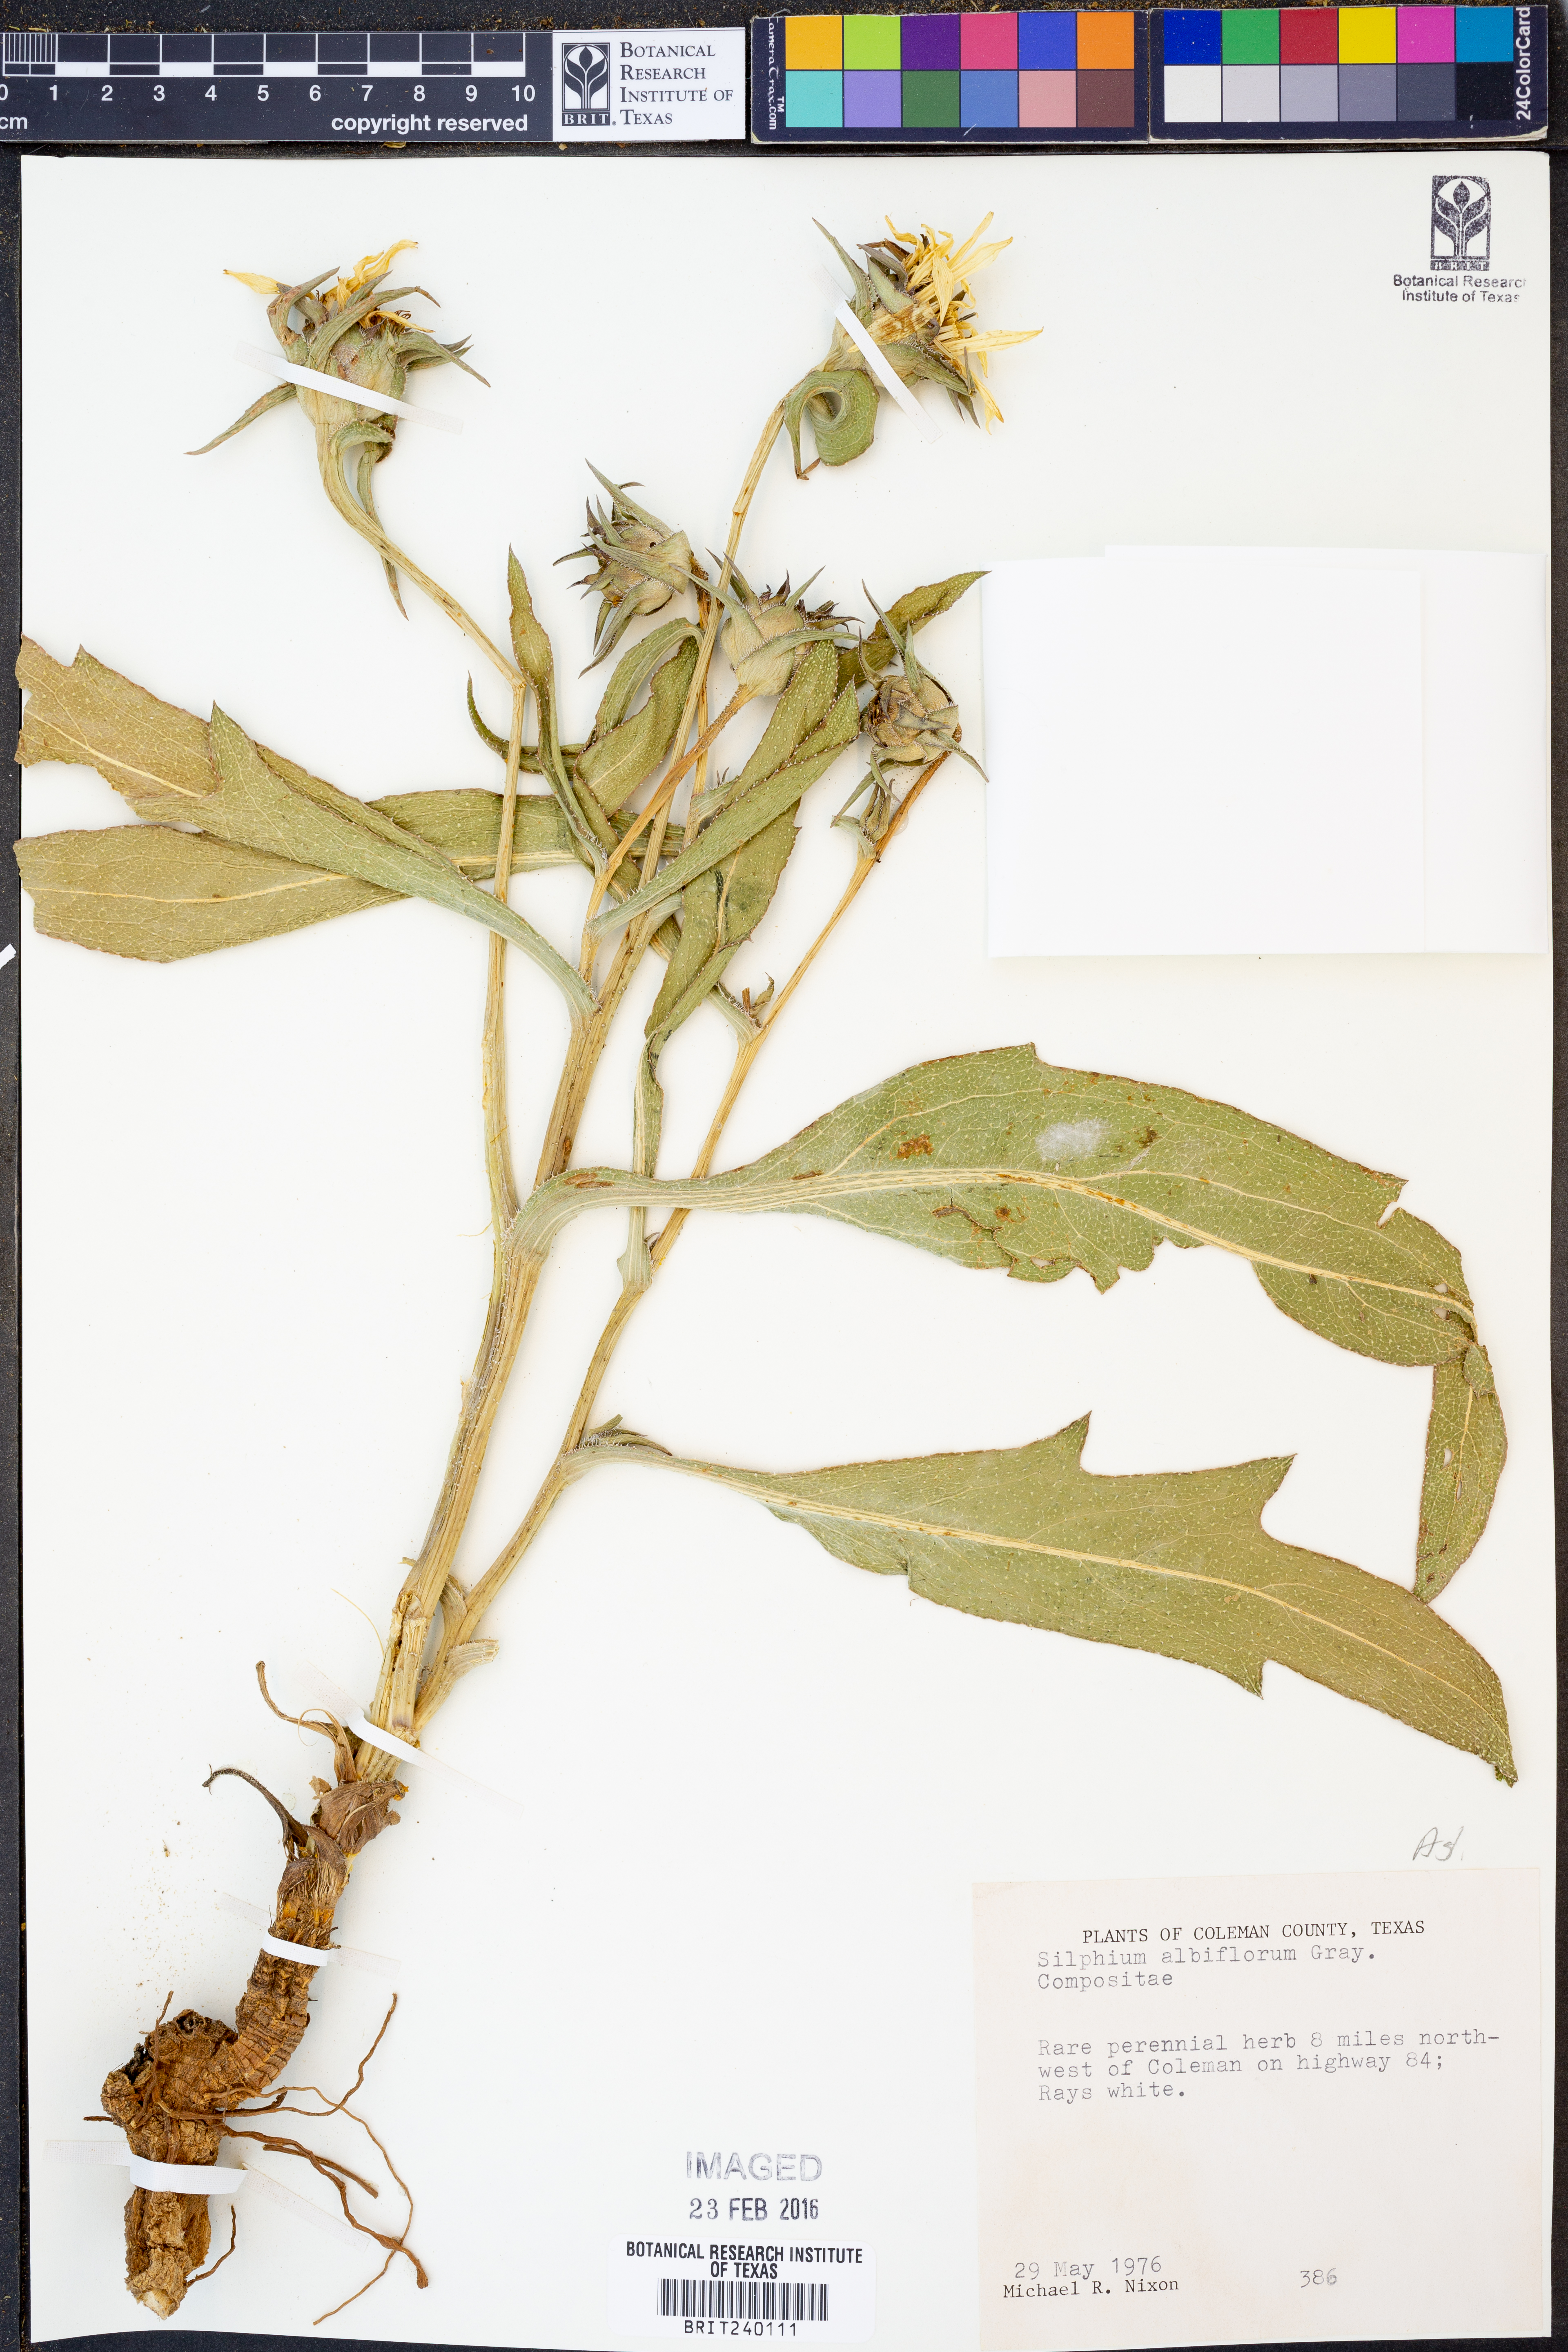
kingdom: Plantae
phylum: Tracheophyta
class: Magnoliopsida
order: Asterales
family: Asteraceae
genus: Silphium
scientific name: Silphium albiflorum
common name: White rosinweed
